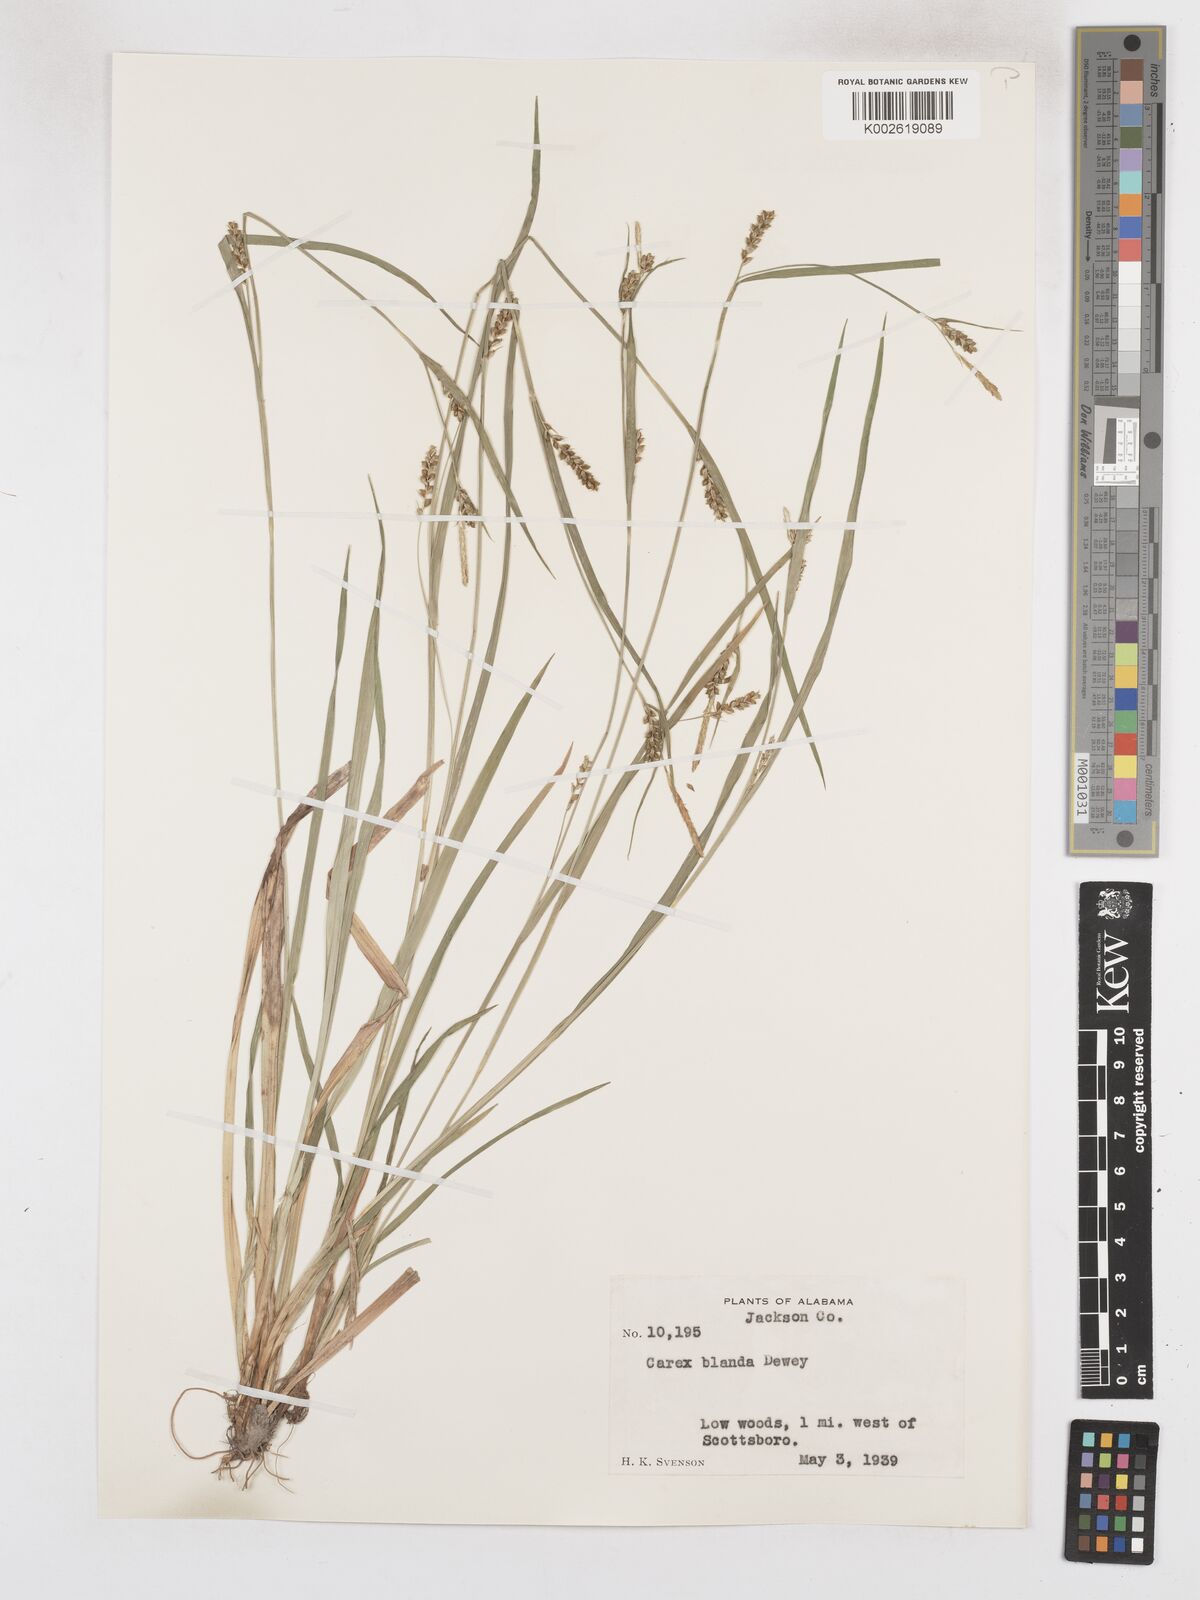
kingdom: Plantae
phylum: Tracheophyta
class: Liliopsida
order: Poales
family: Cyperaceae
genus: Carex
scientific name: Carex blanda
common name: Bland sedge
